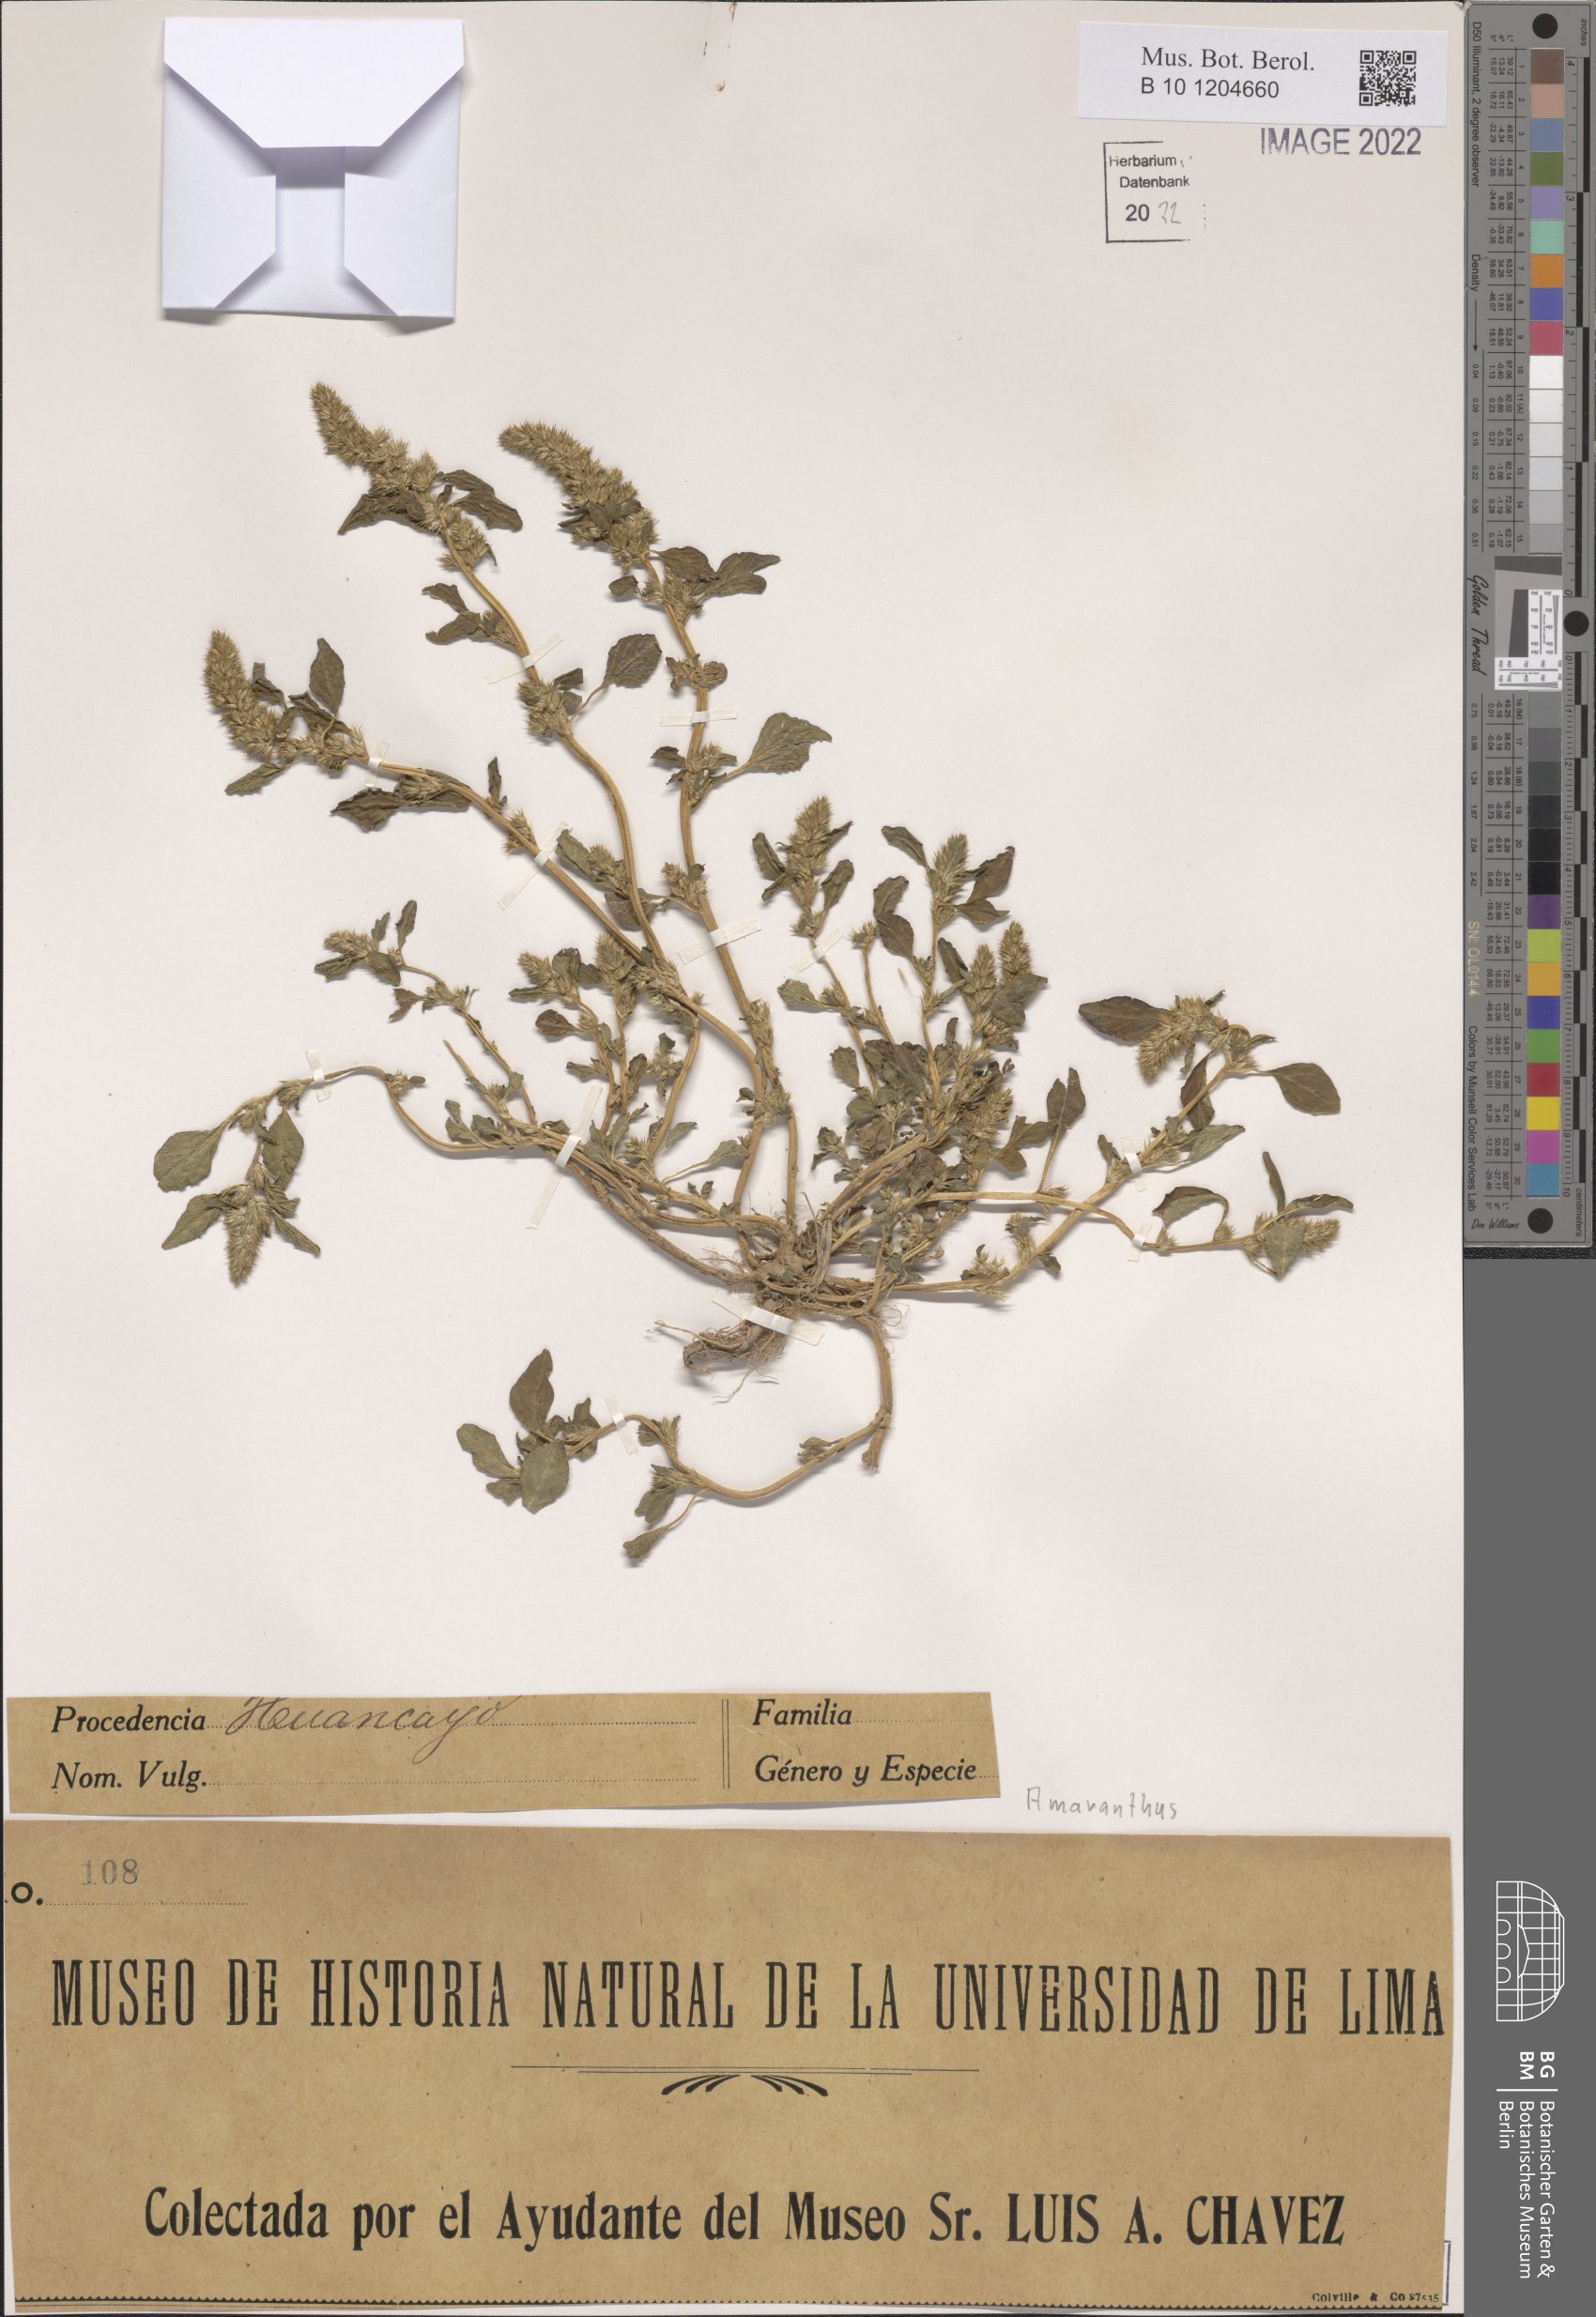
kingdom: Plantae
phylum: Tracheophyta
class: Magnoliopsida
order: Caryophyllales
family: Amaranthaceae
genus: Amaranthus
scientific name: Amaranthus
